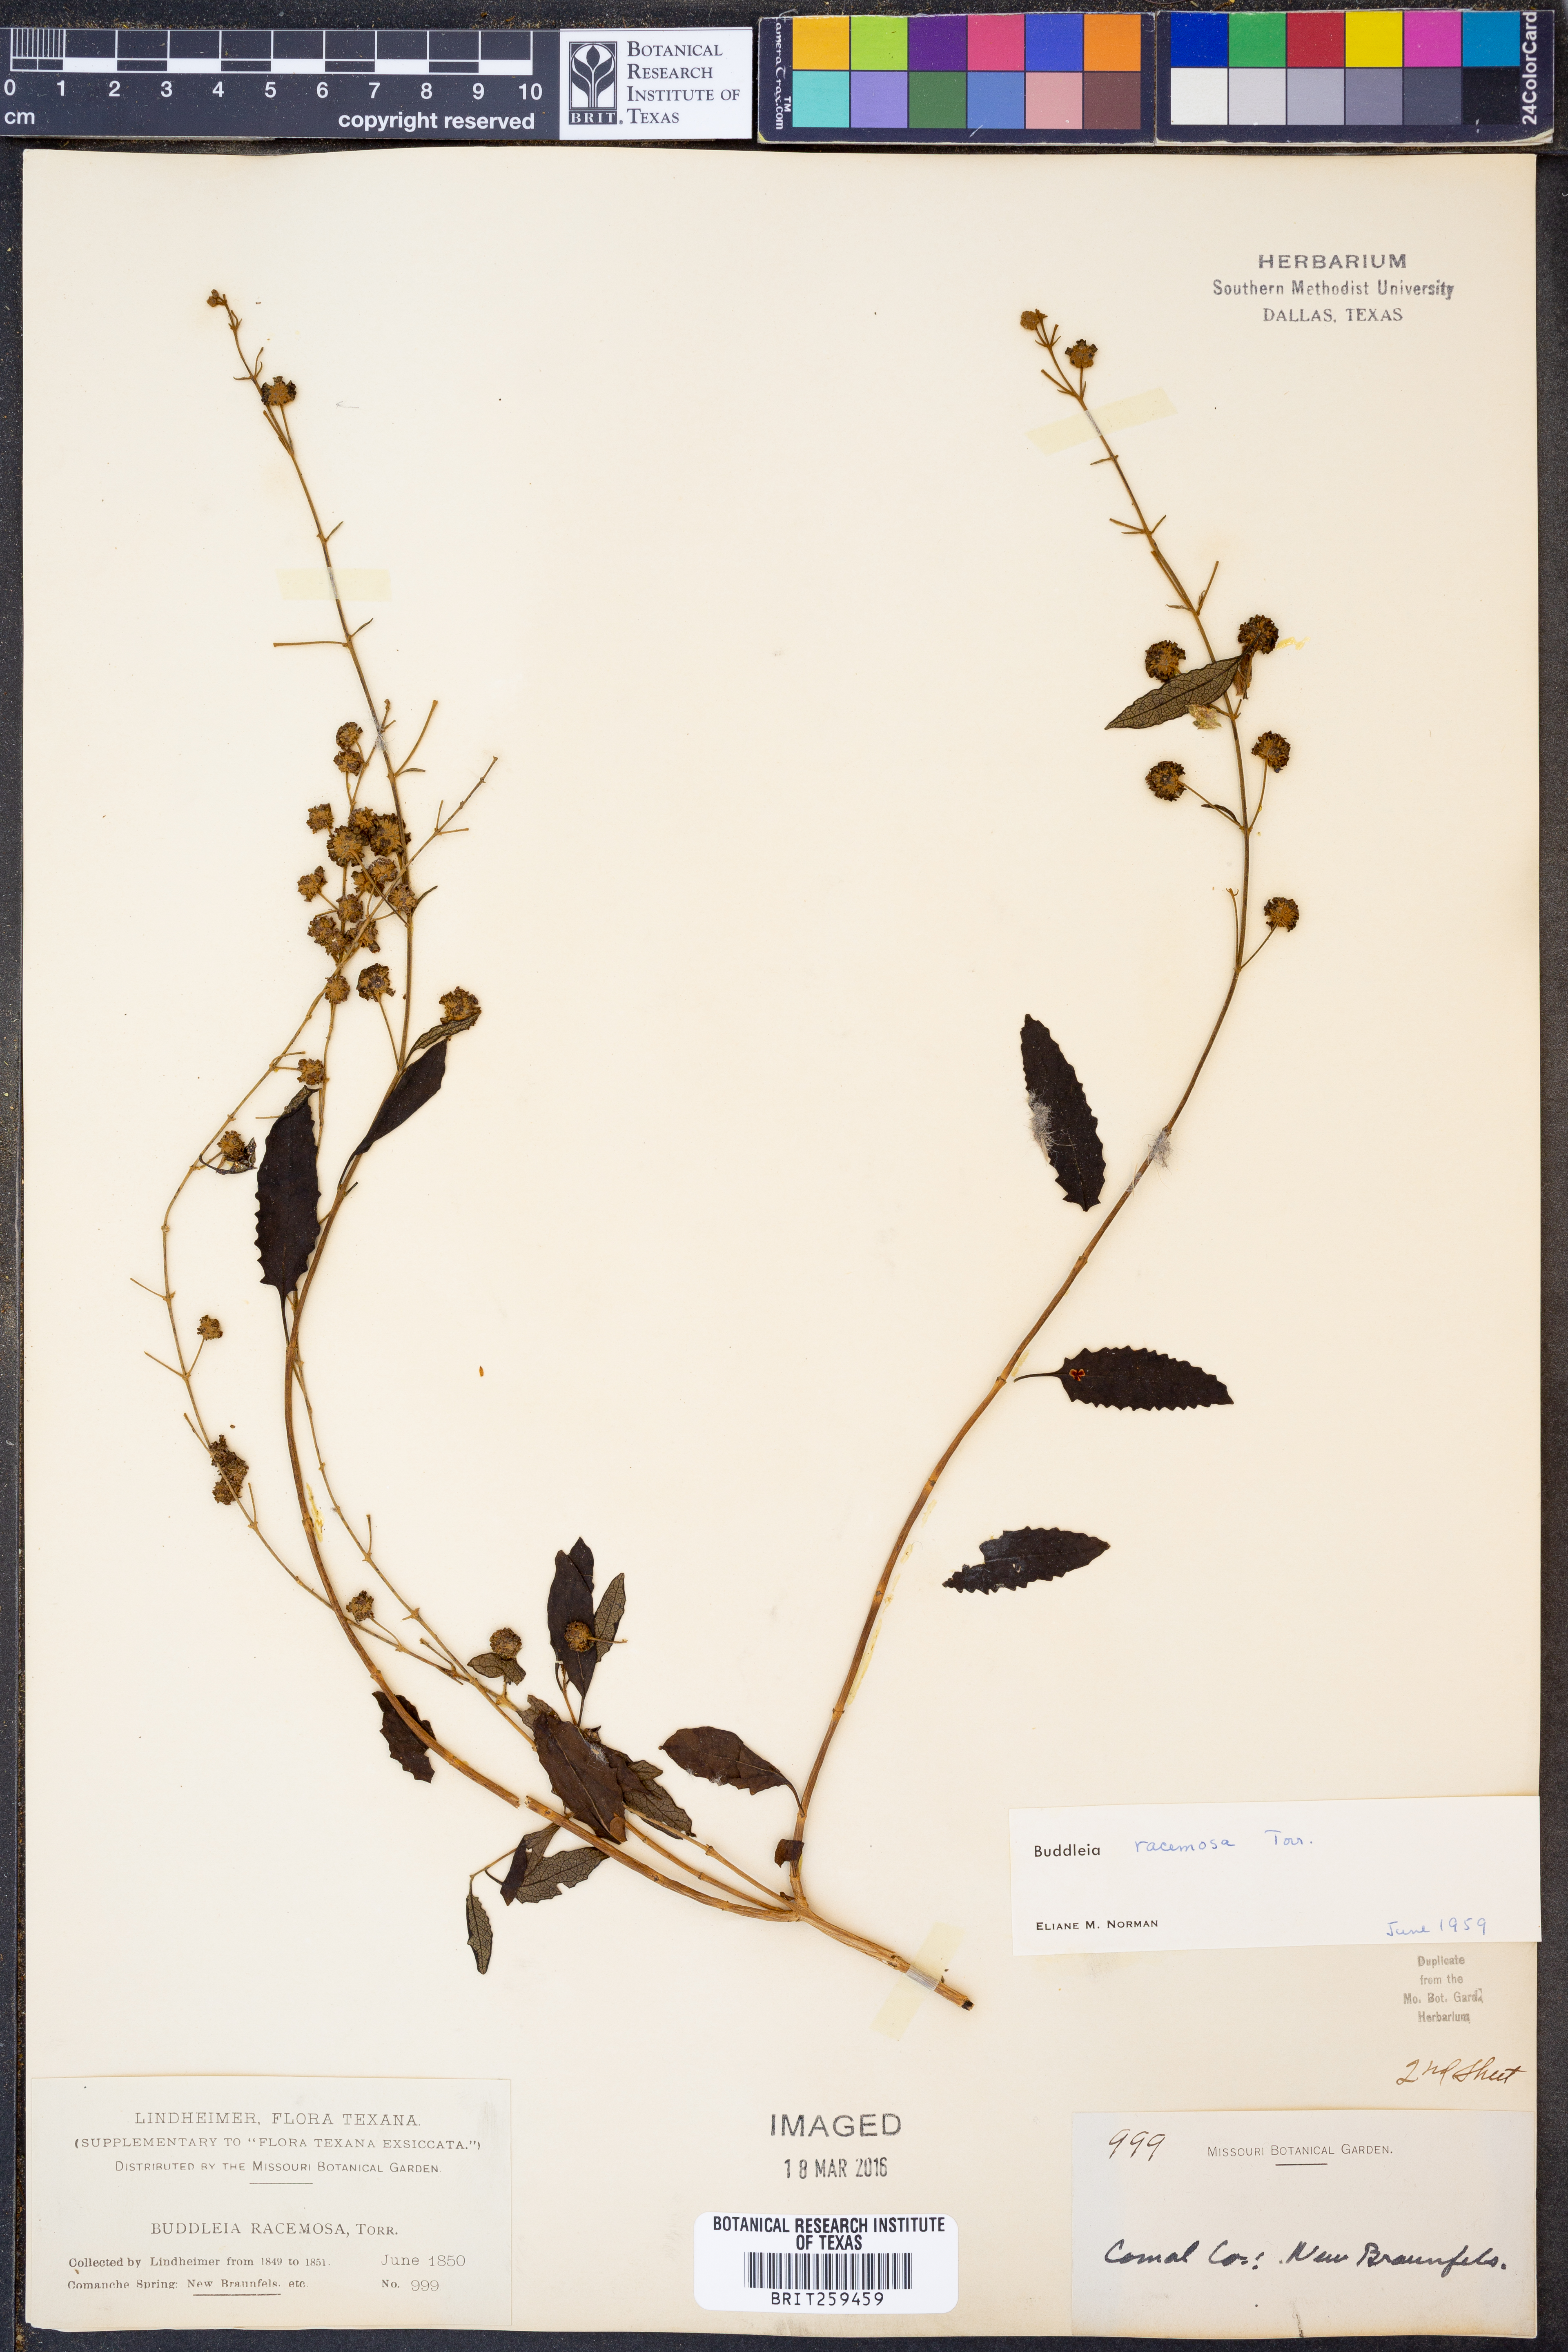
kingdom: Plantae
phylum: Tracheophyta
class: Magnoliopsida
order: Lamiales
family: Scrophulariaceae
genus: Buddleja
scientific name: Buddleja racemosa
